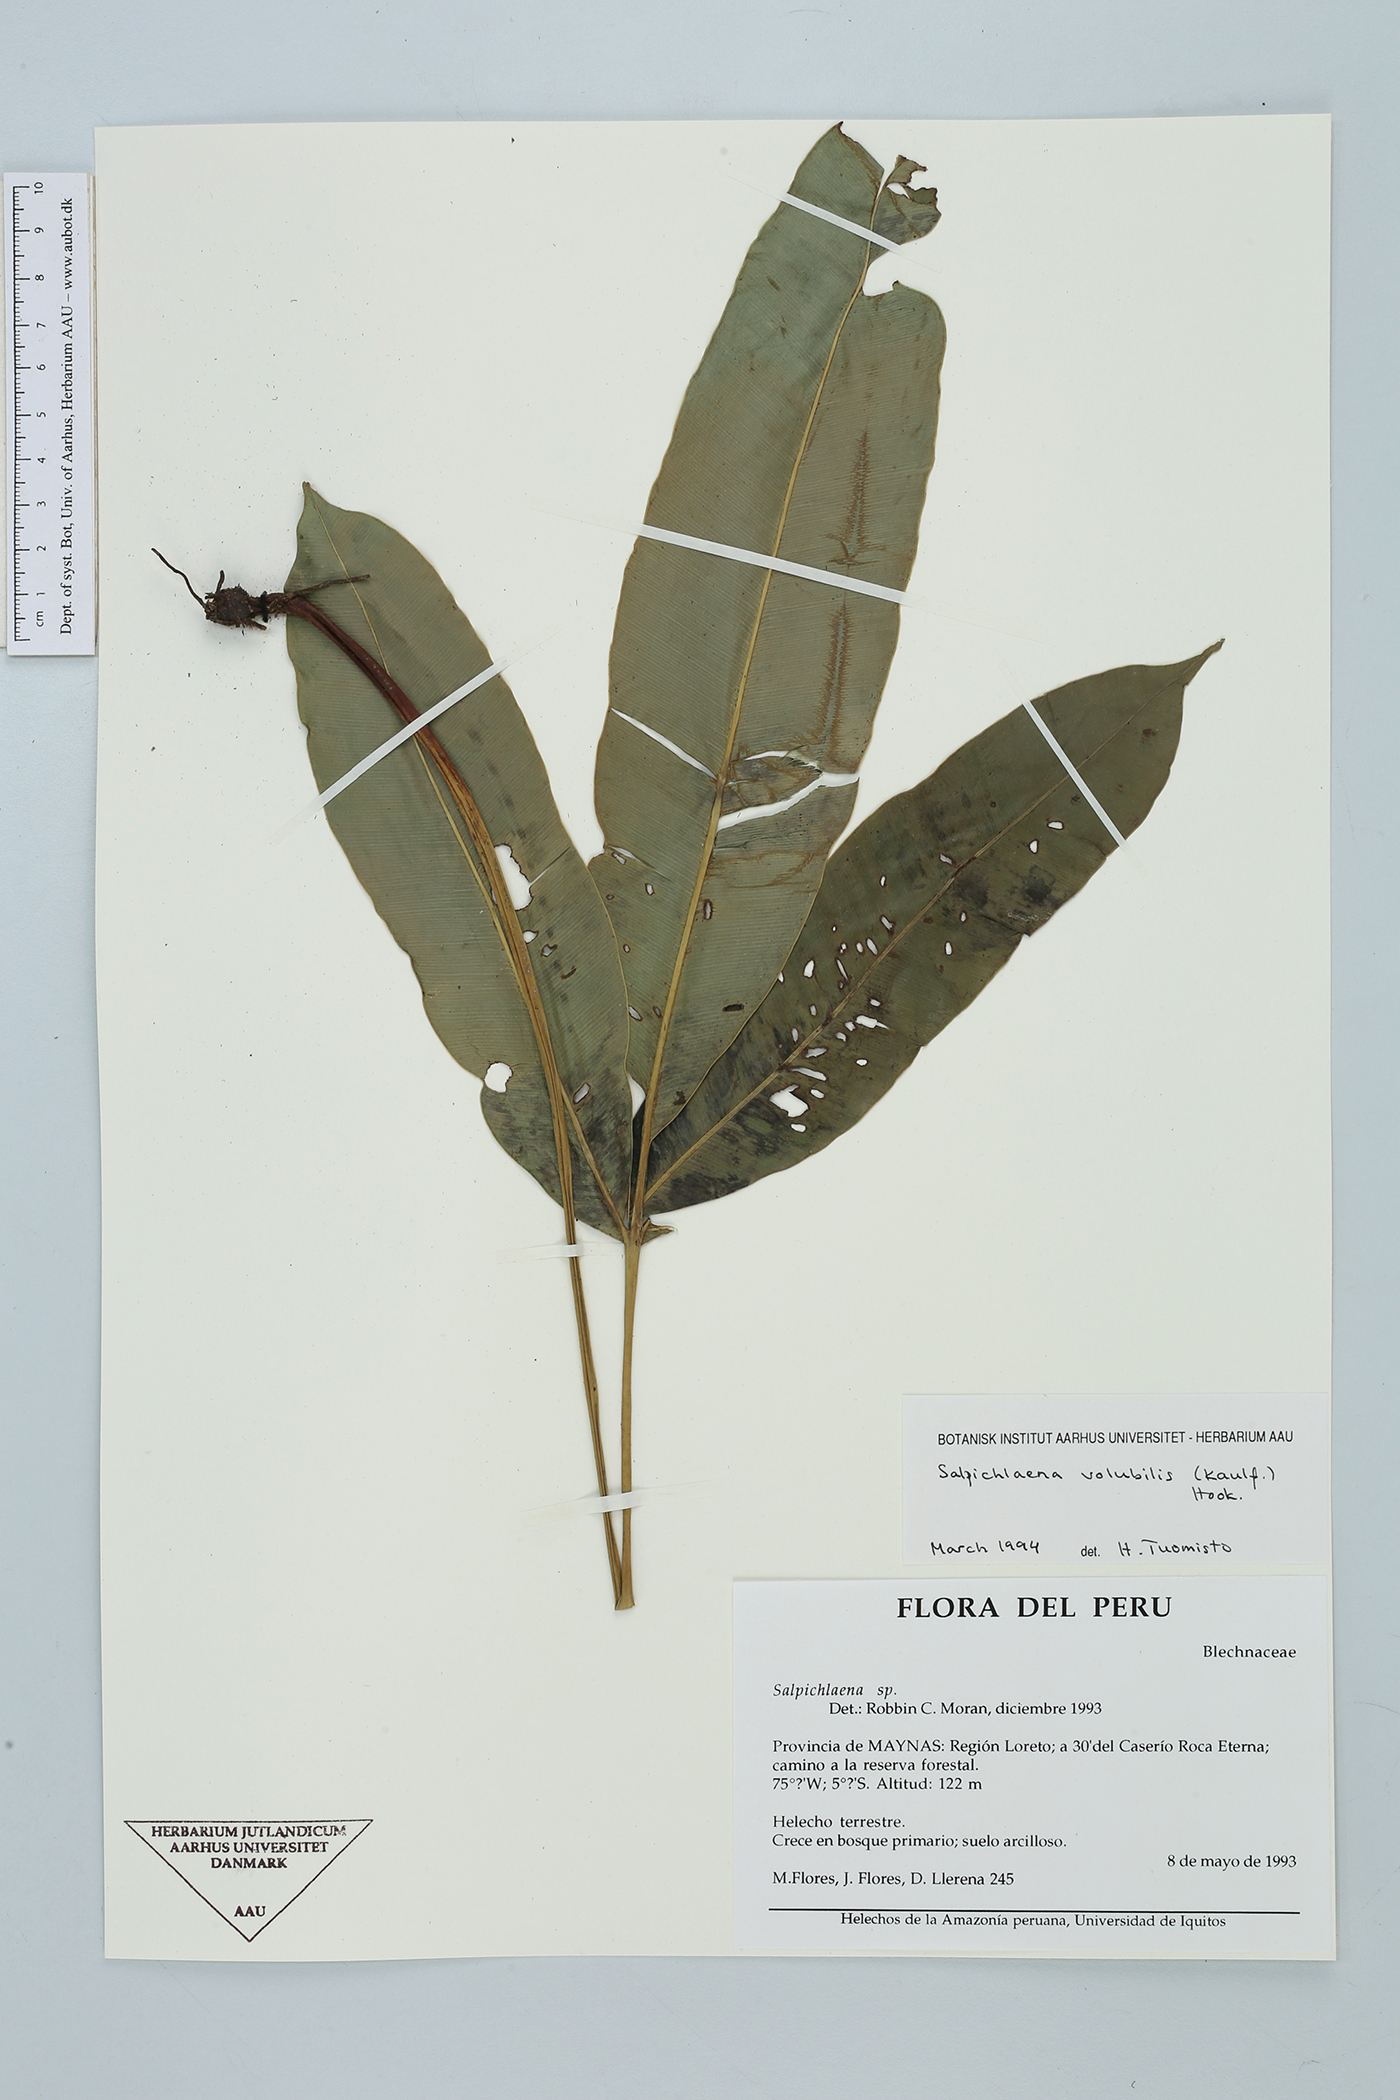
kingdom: Plantae
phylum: Tracheophyta
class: Polypodiopsida
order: Polypodiales
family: Blechnaceae
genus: Salpichlaena
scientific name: Salpichlaena volubilis
